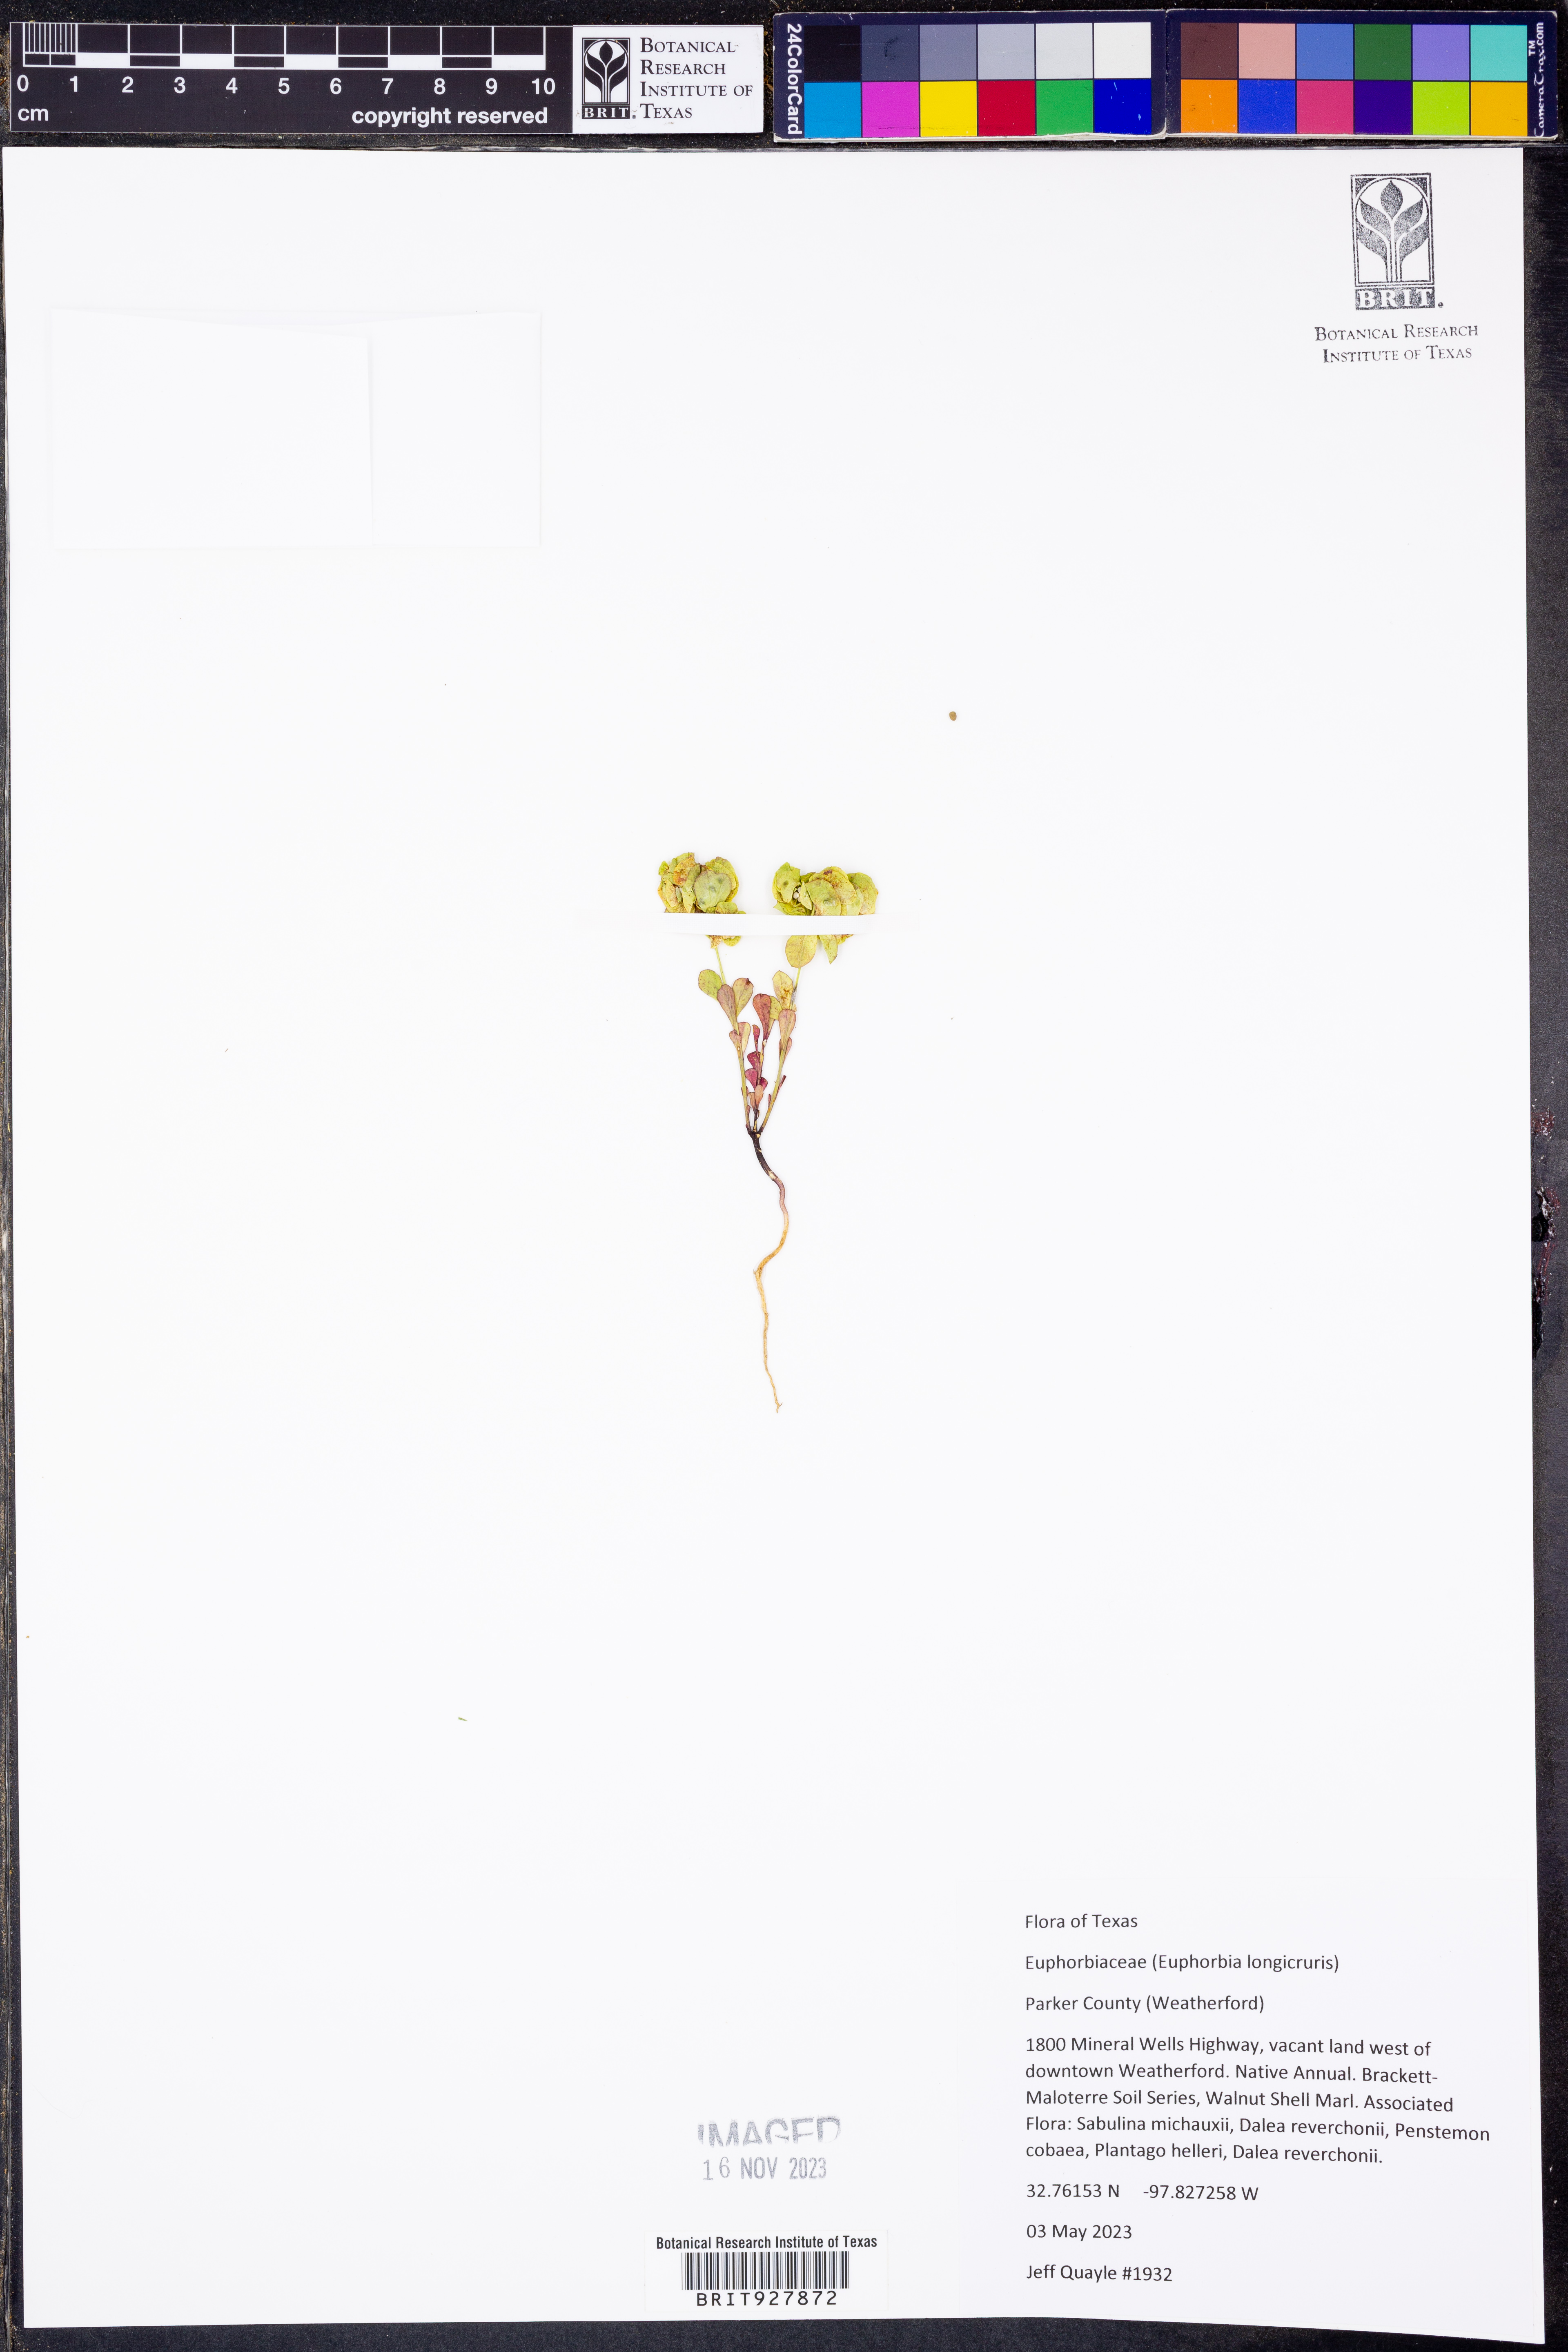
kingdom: Plantae
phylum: Tracheophyta
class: Magnoliopsida
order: Malpighiales
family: Euphorbiaceae
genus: Euphorbia
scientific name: Euphorbia longicruris
